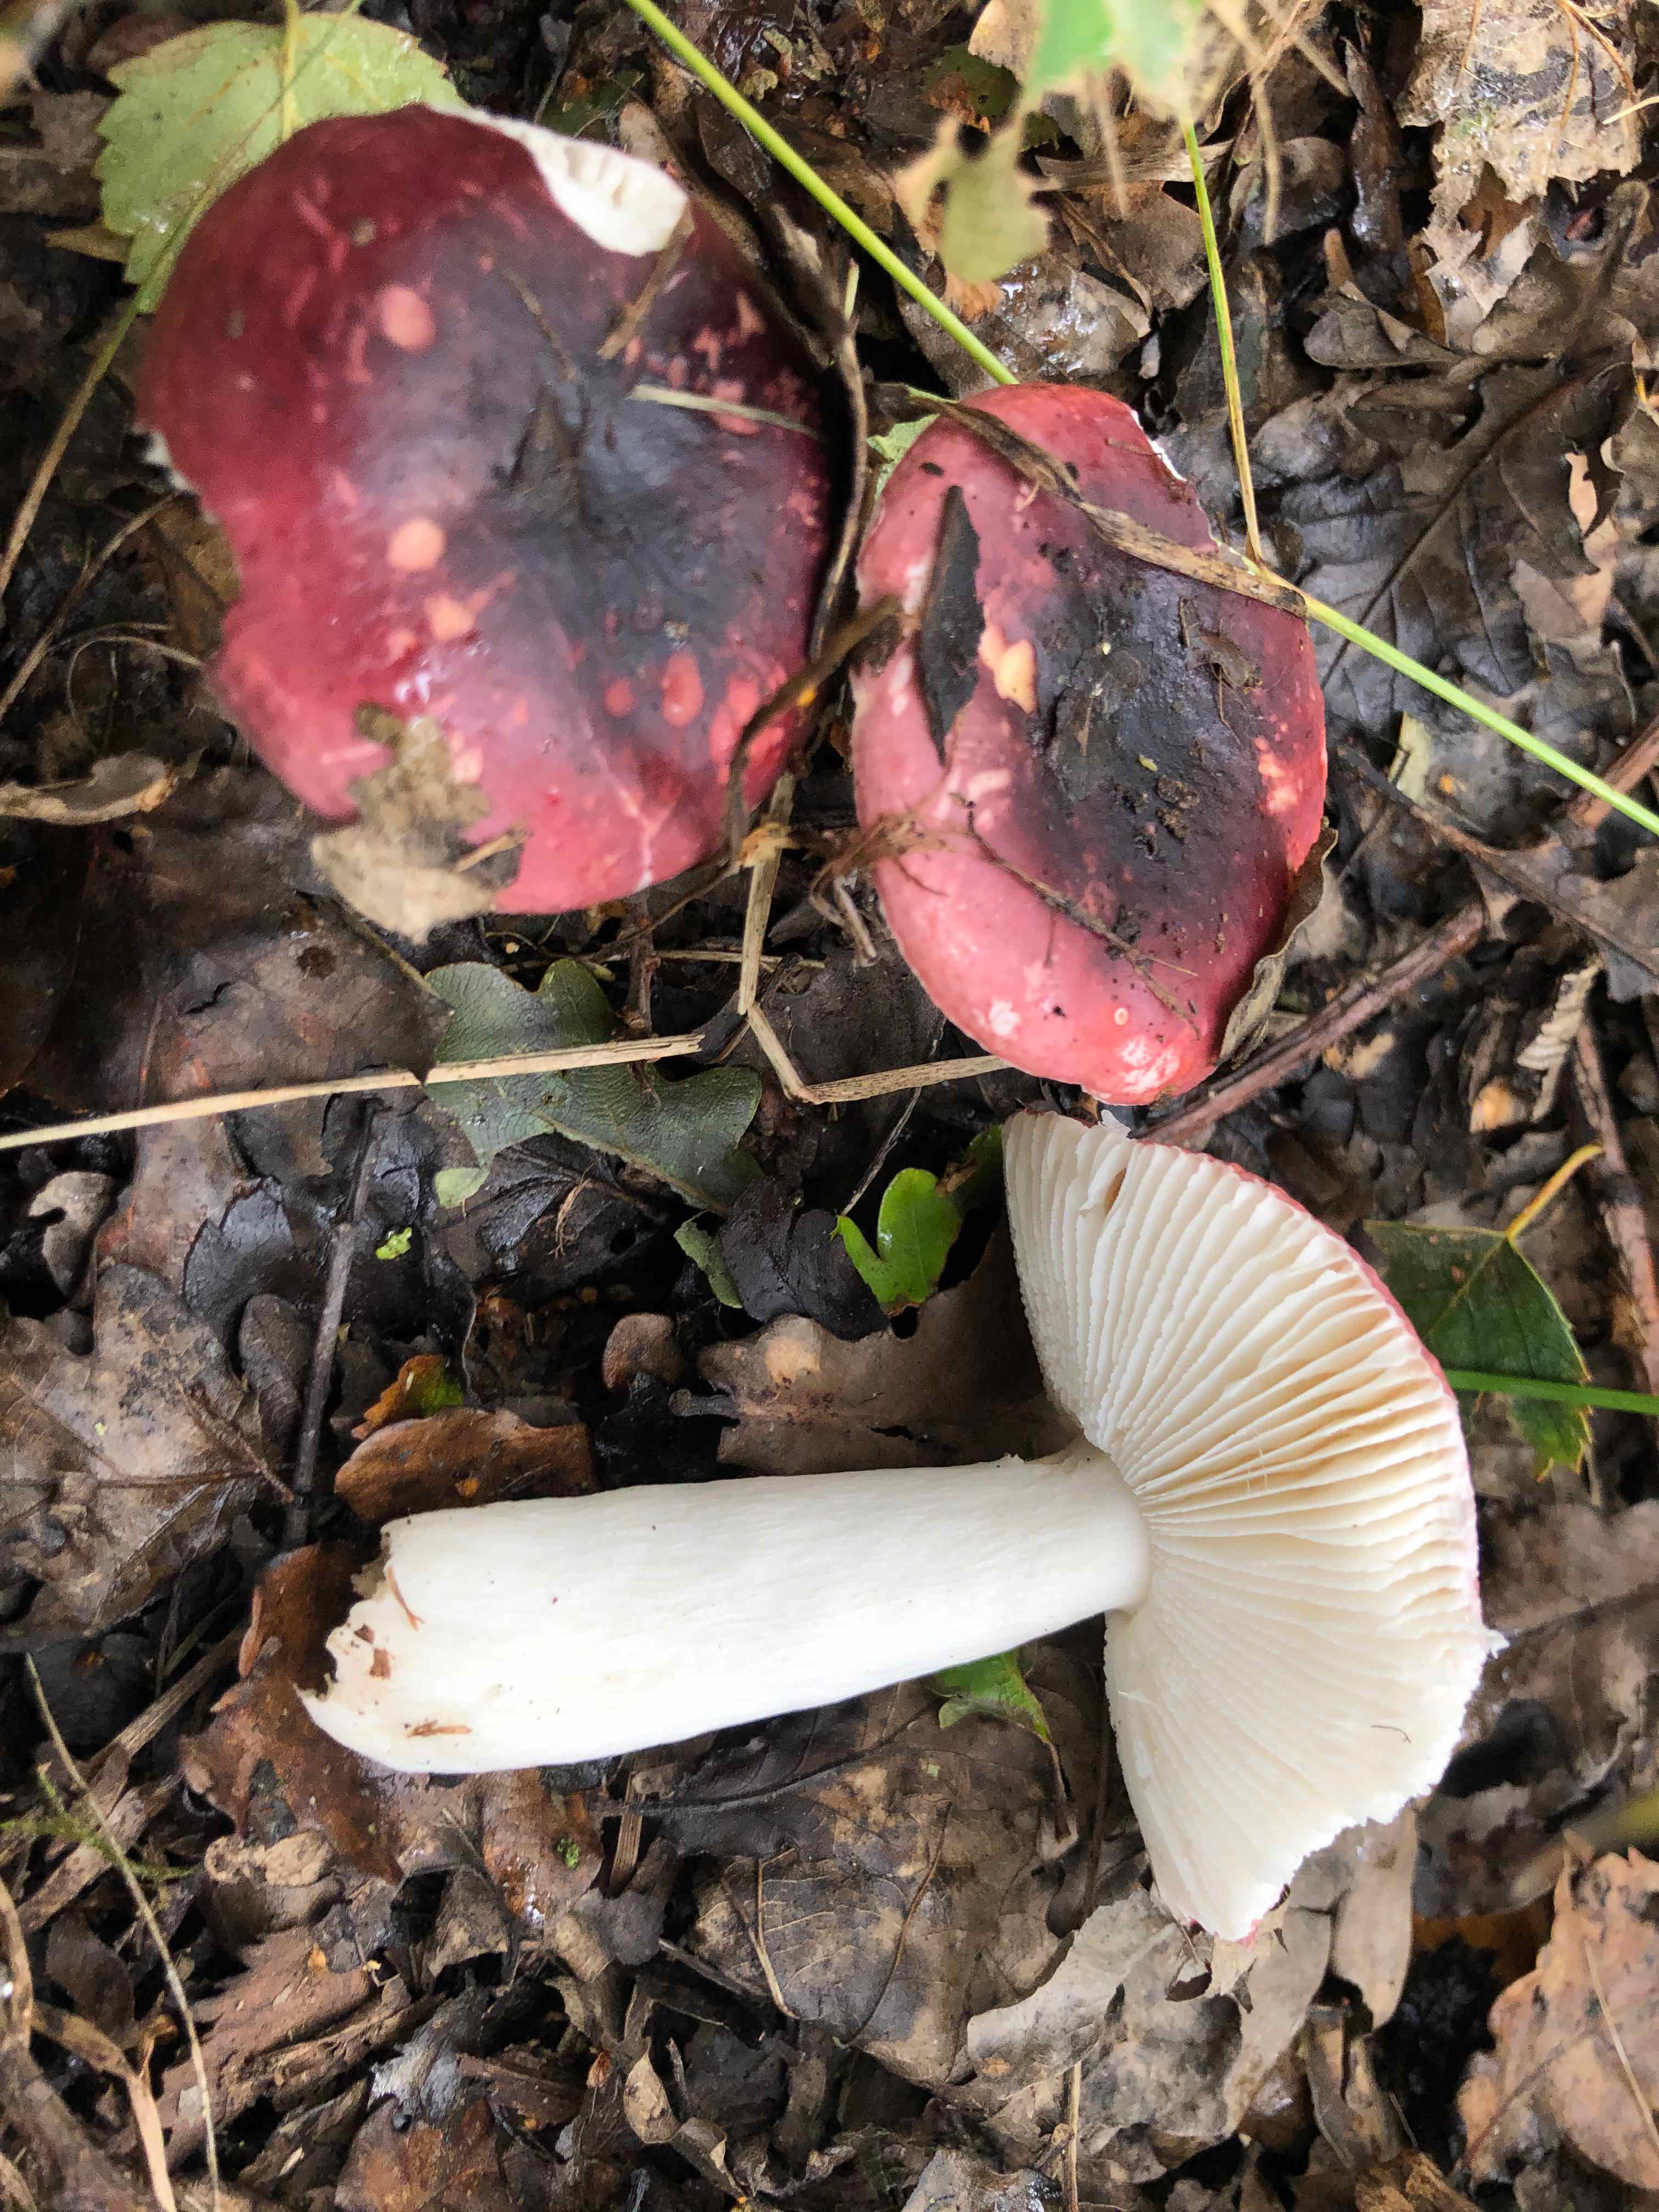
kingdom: Fungi
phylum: Basidiomycota
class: Agaricomycetes
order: Russulales
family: Russulaceae
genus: Russula
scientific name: Russula fragilis
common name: savbladet skørhat
